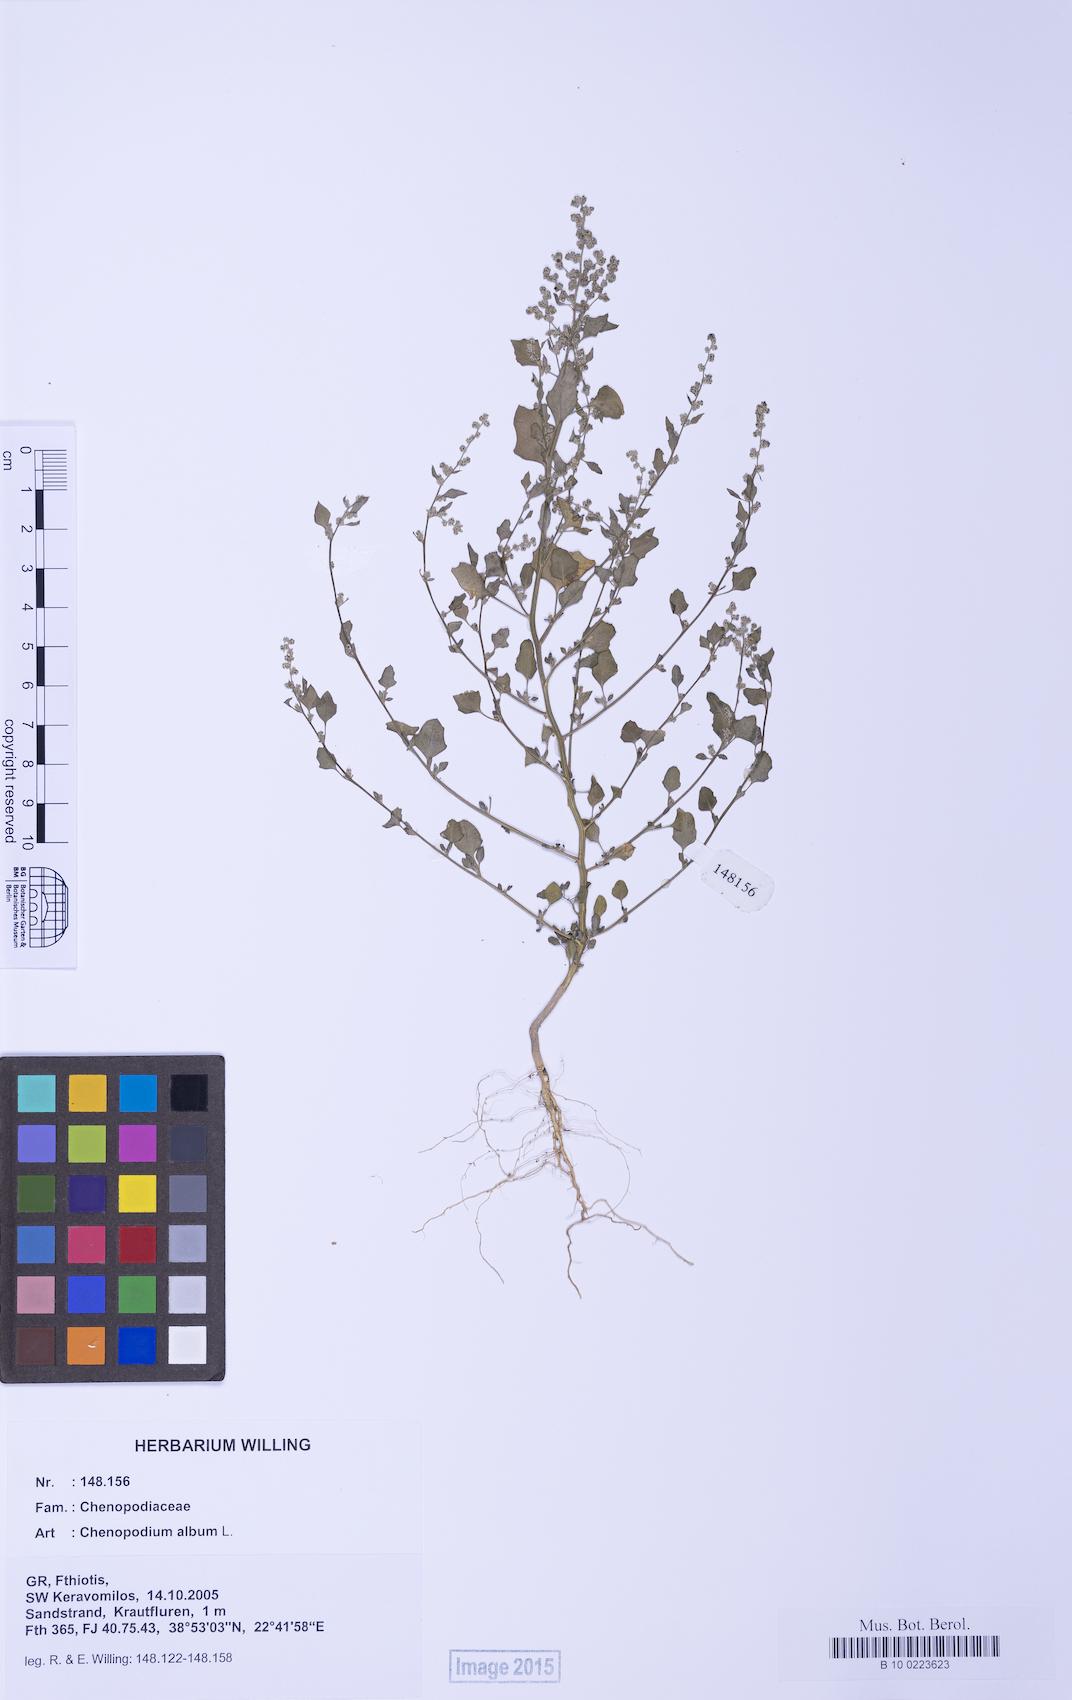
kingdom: Plantae
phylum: Tracheophyta
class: Magnoliopsida
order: Caryophyllales
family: Amaranthaceae
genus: Chenopodium
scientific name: Chenopodium opulifolium
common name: Grey goosefoot
